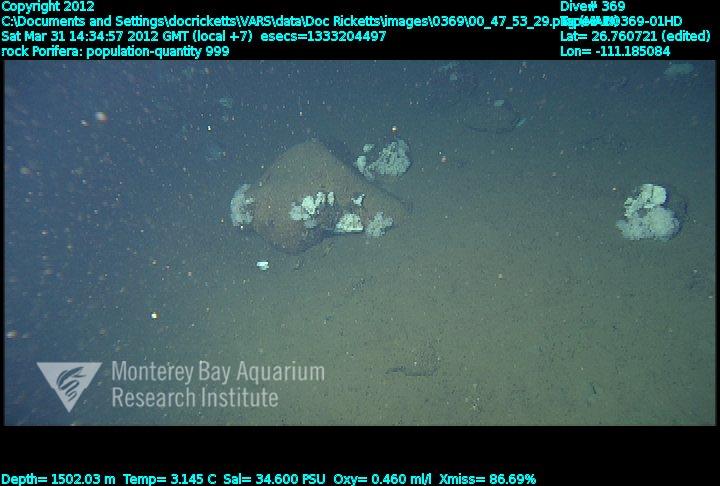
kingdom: Animalia
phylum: Porifera
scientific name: Porifera
